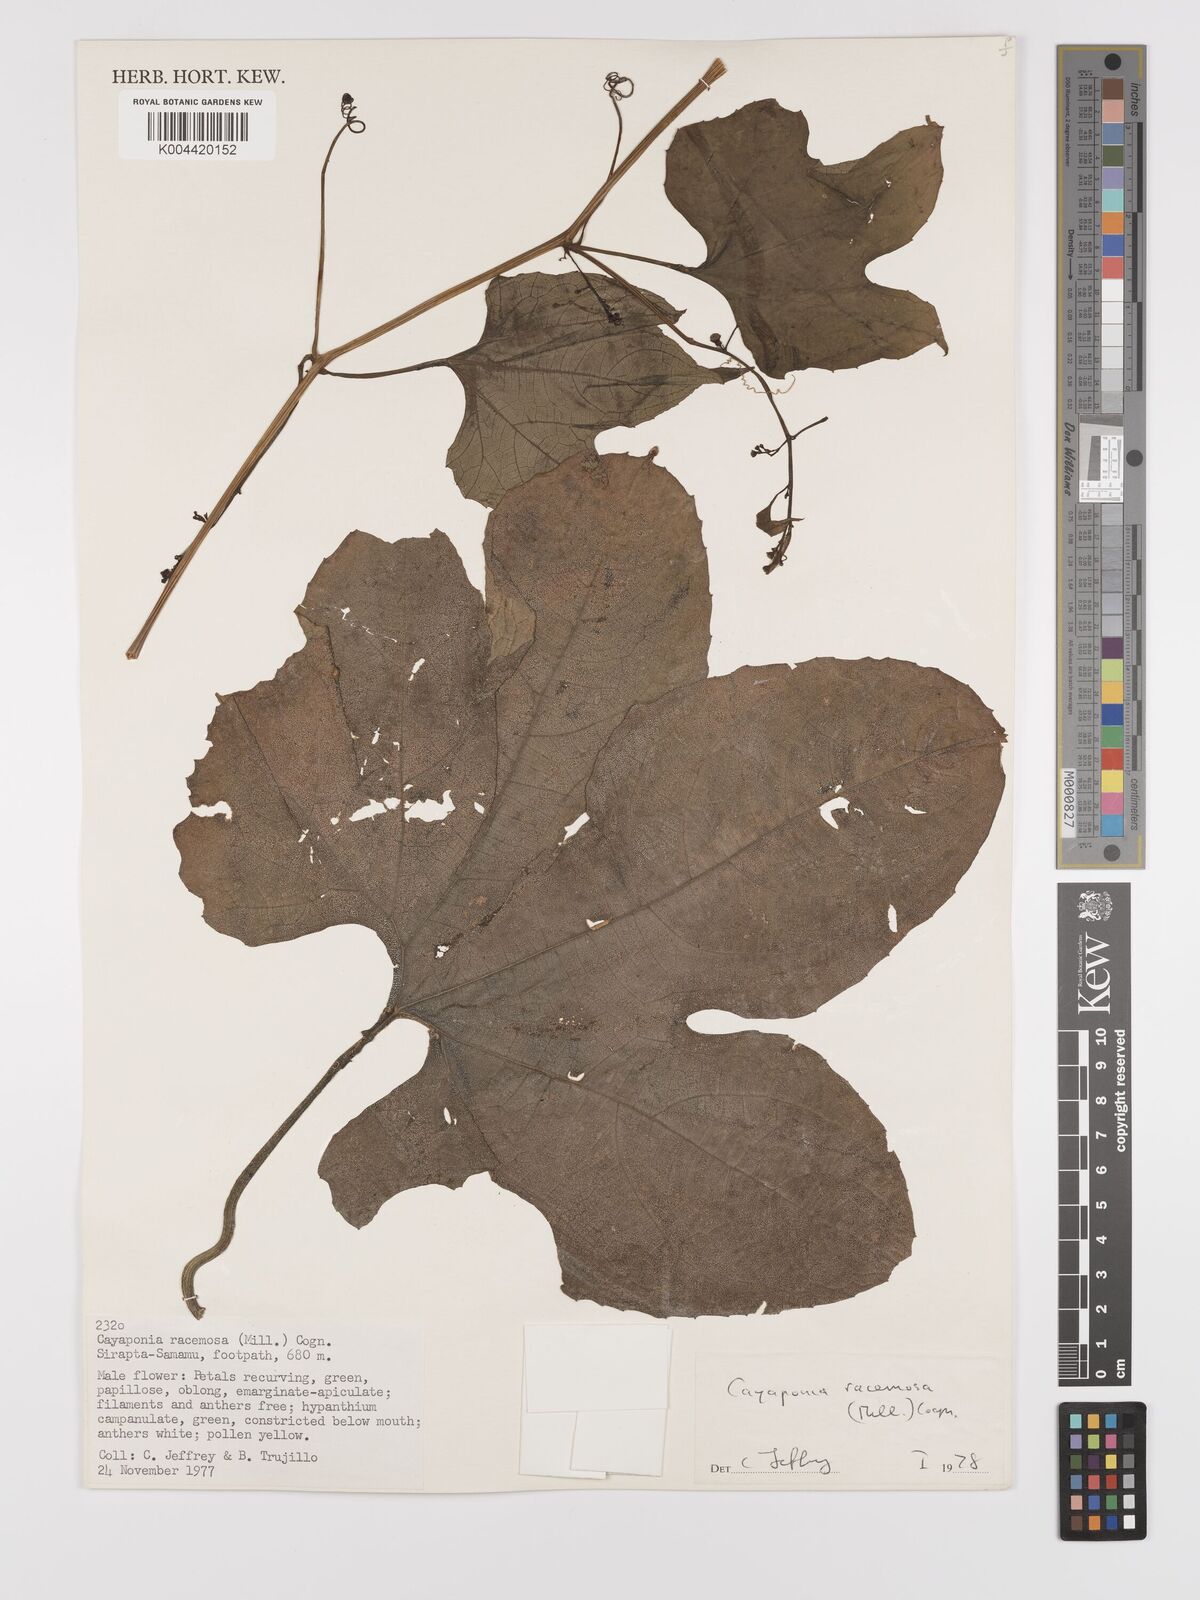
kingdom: Plantae
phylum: Tracheophyta
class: Magnoliopsida
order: Cucurbitales
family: Cucurbitaceae
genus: Cayaponia
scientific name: Cayaponia racemosa
